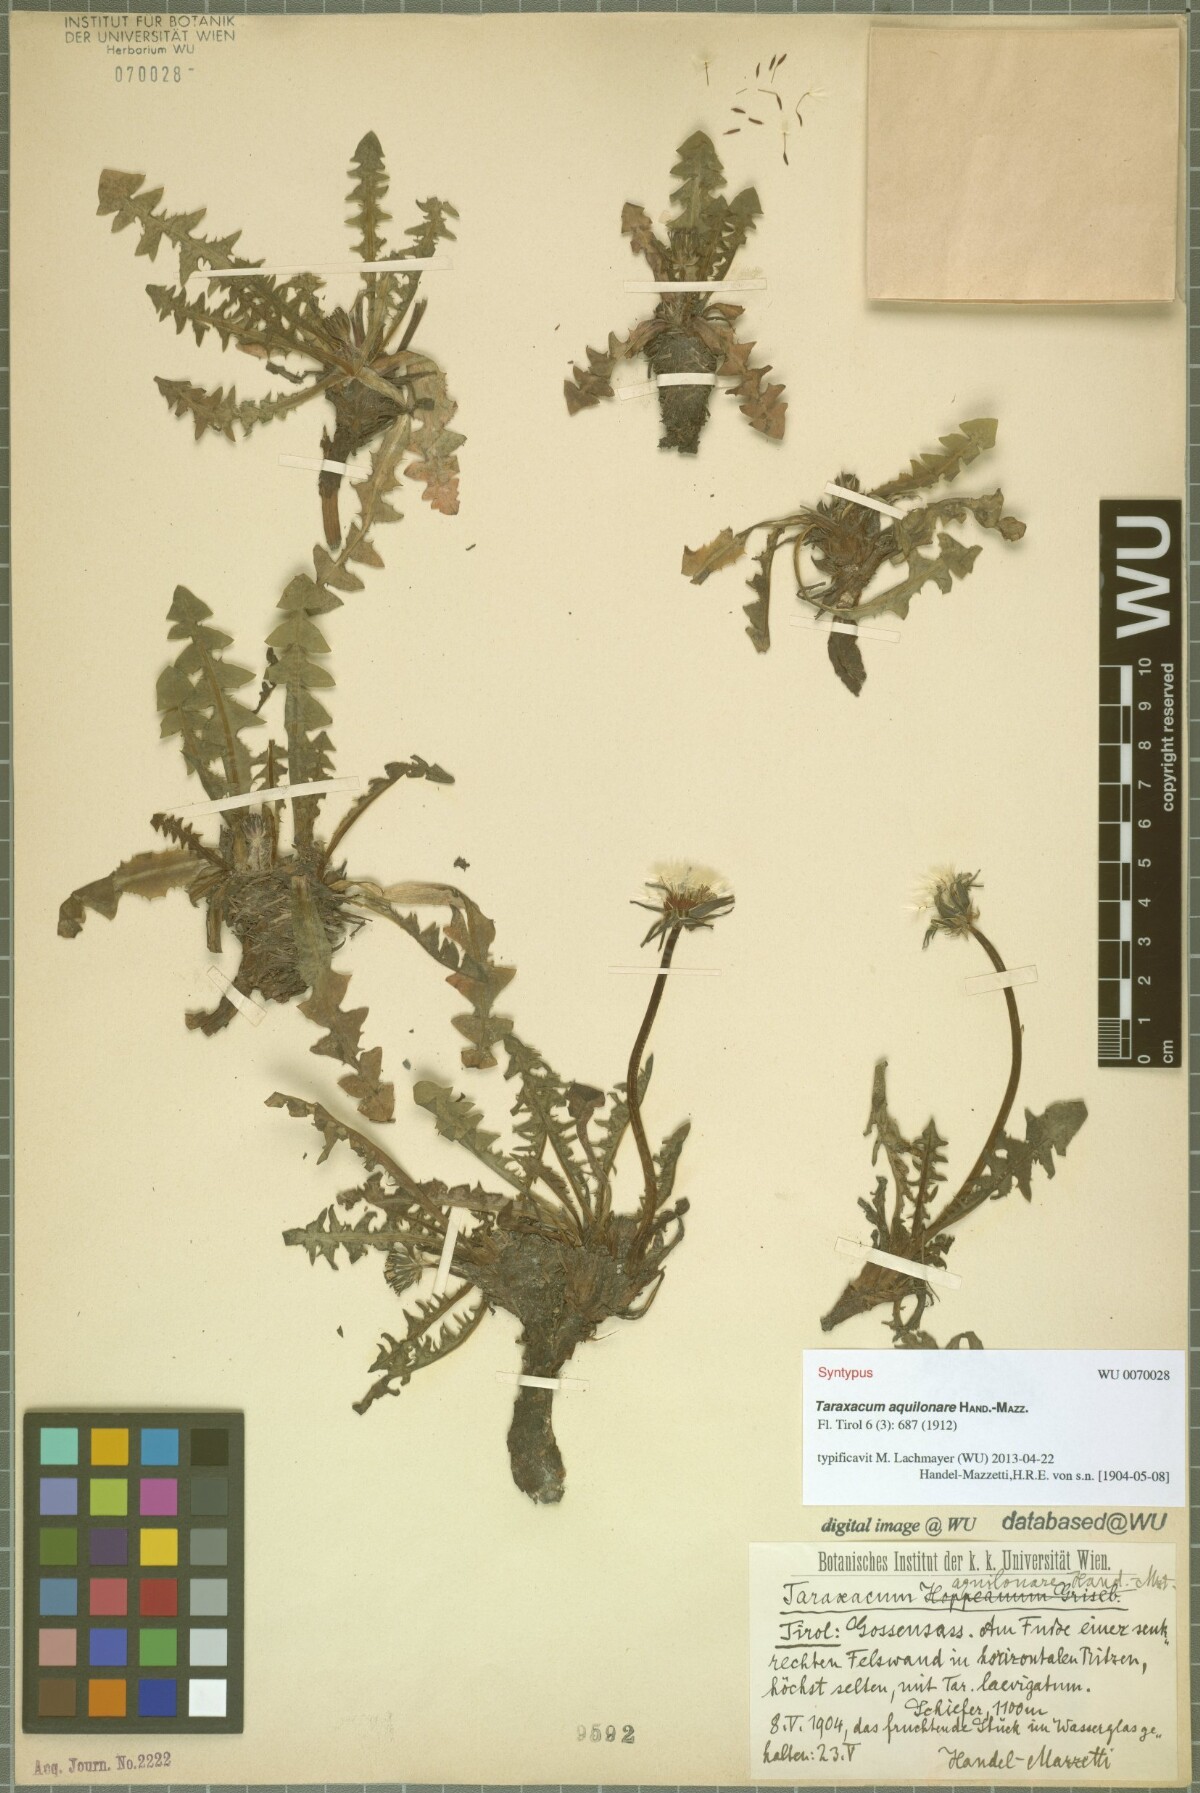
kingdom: Plantae
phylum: Tracheophyta
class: Magnoliopsida
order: Asterales
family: Asteraceae
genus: Taraxacum
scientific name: Taraxacum aquilonare
